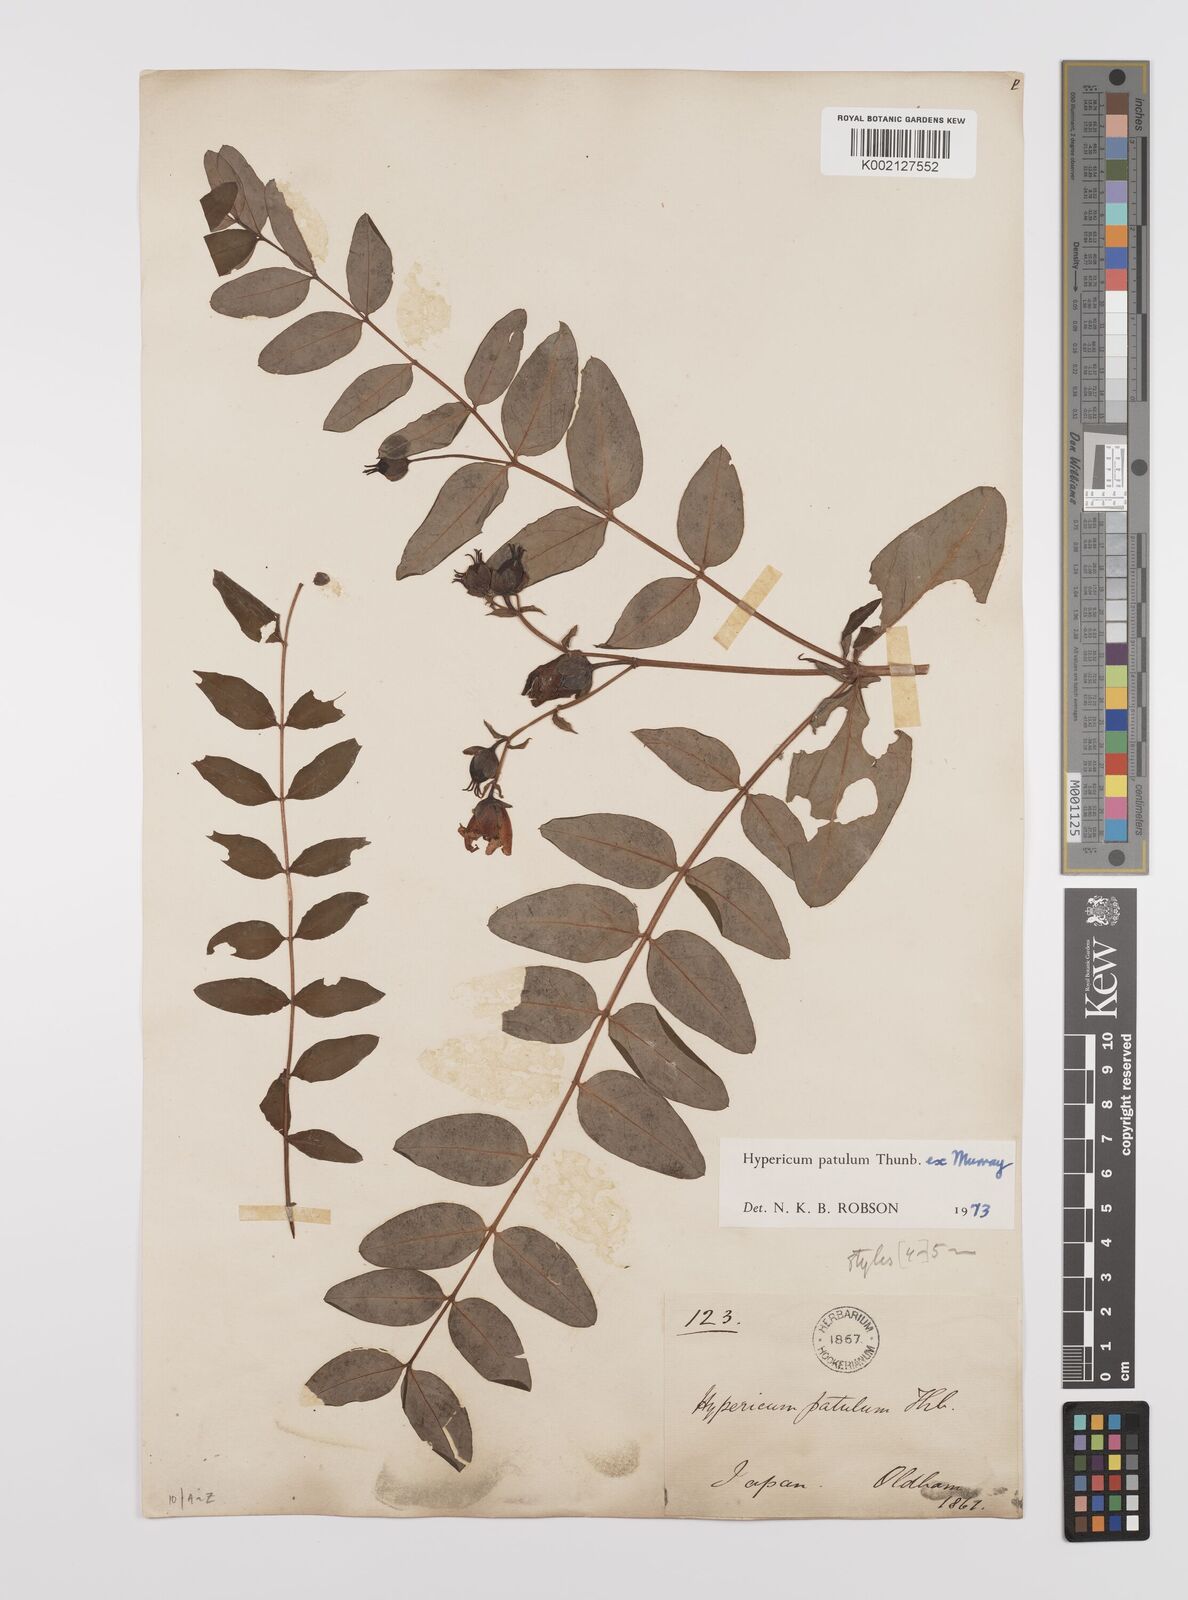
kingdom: Plantae
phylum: Tracheophyta
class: Magnoliopsida
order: Malpighiales
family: Hypericaceae
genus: Hypericum
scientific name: Hypericum patulum
